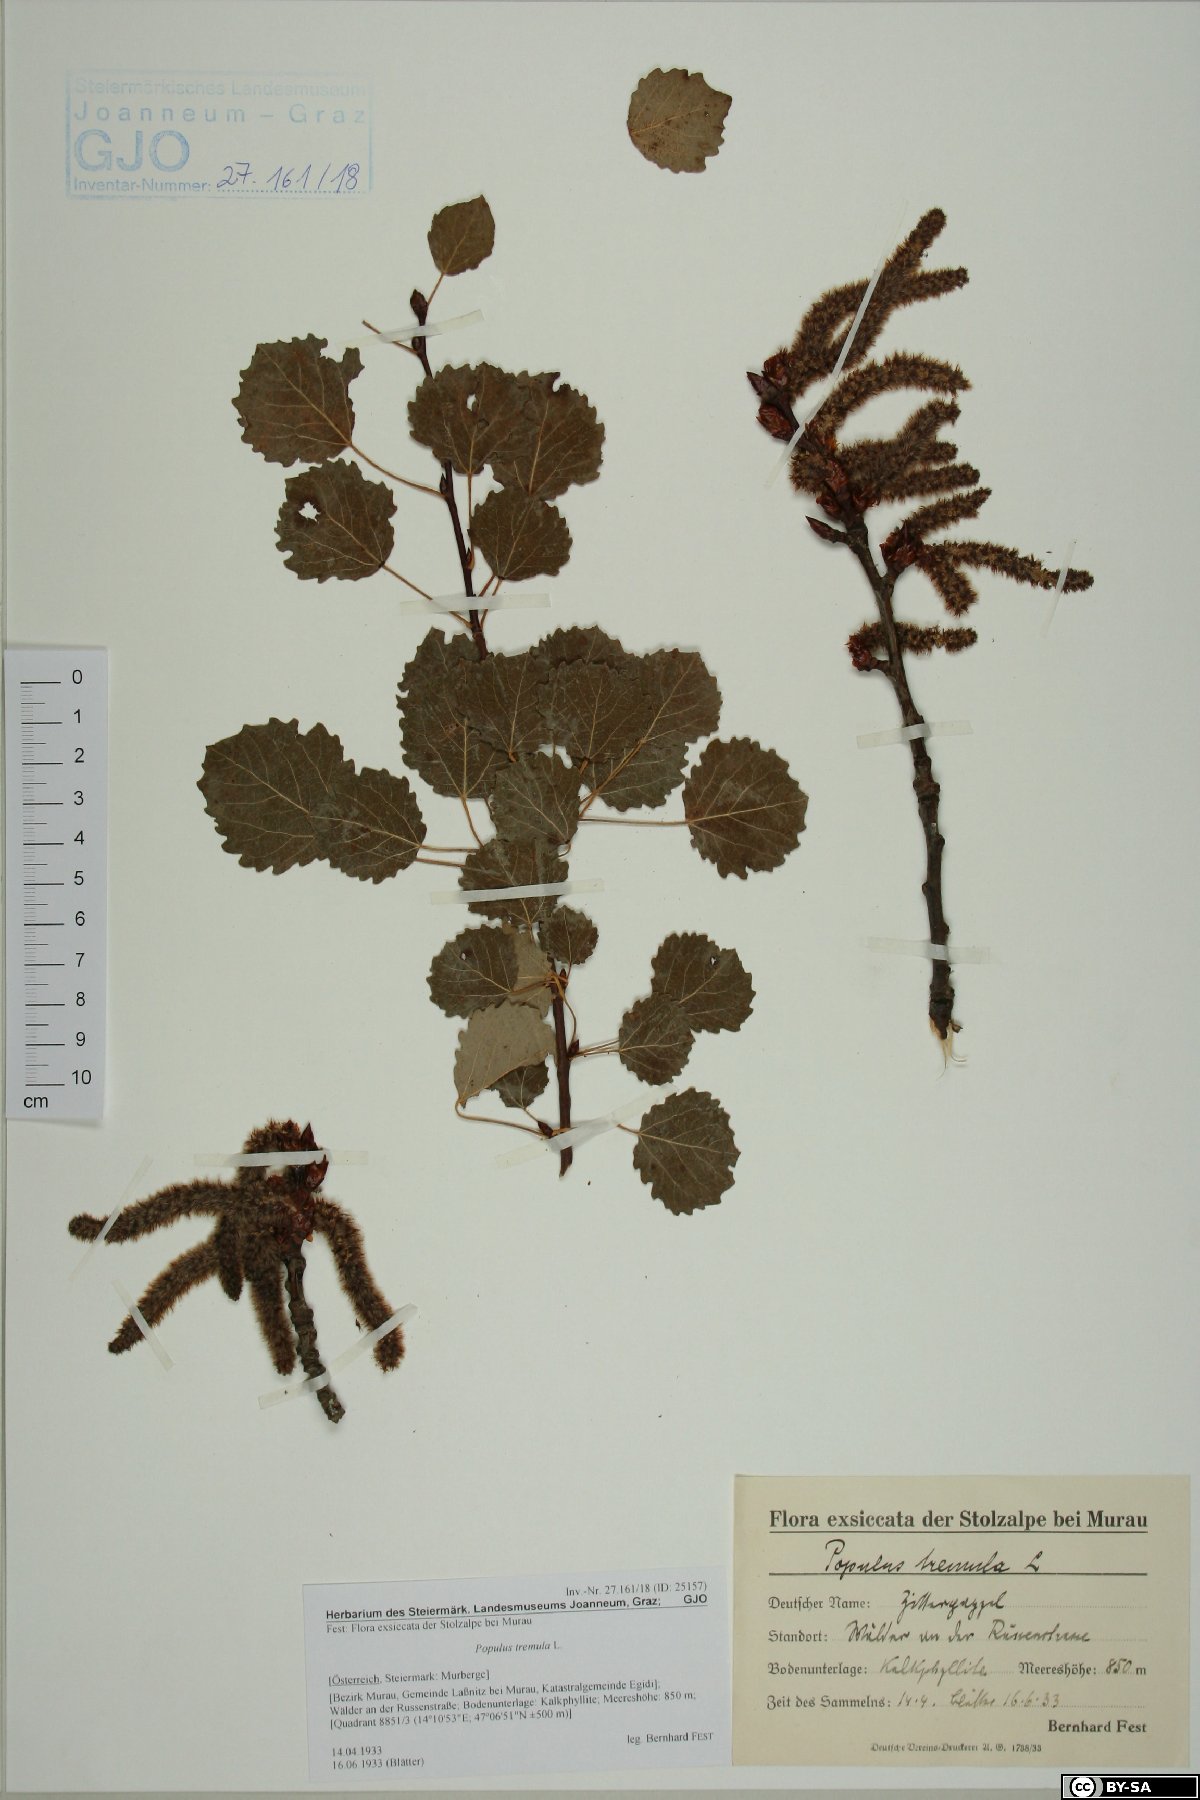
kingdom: Plantae
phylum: Tracheophyta
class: Magnoliopsida
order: Malpighiales
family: Salicaceae
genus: Populus
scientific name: Populus tremula
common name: European aspen
